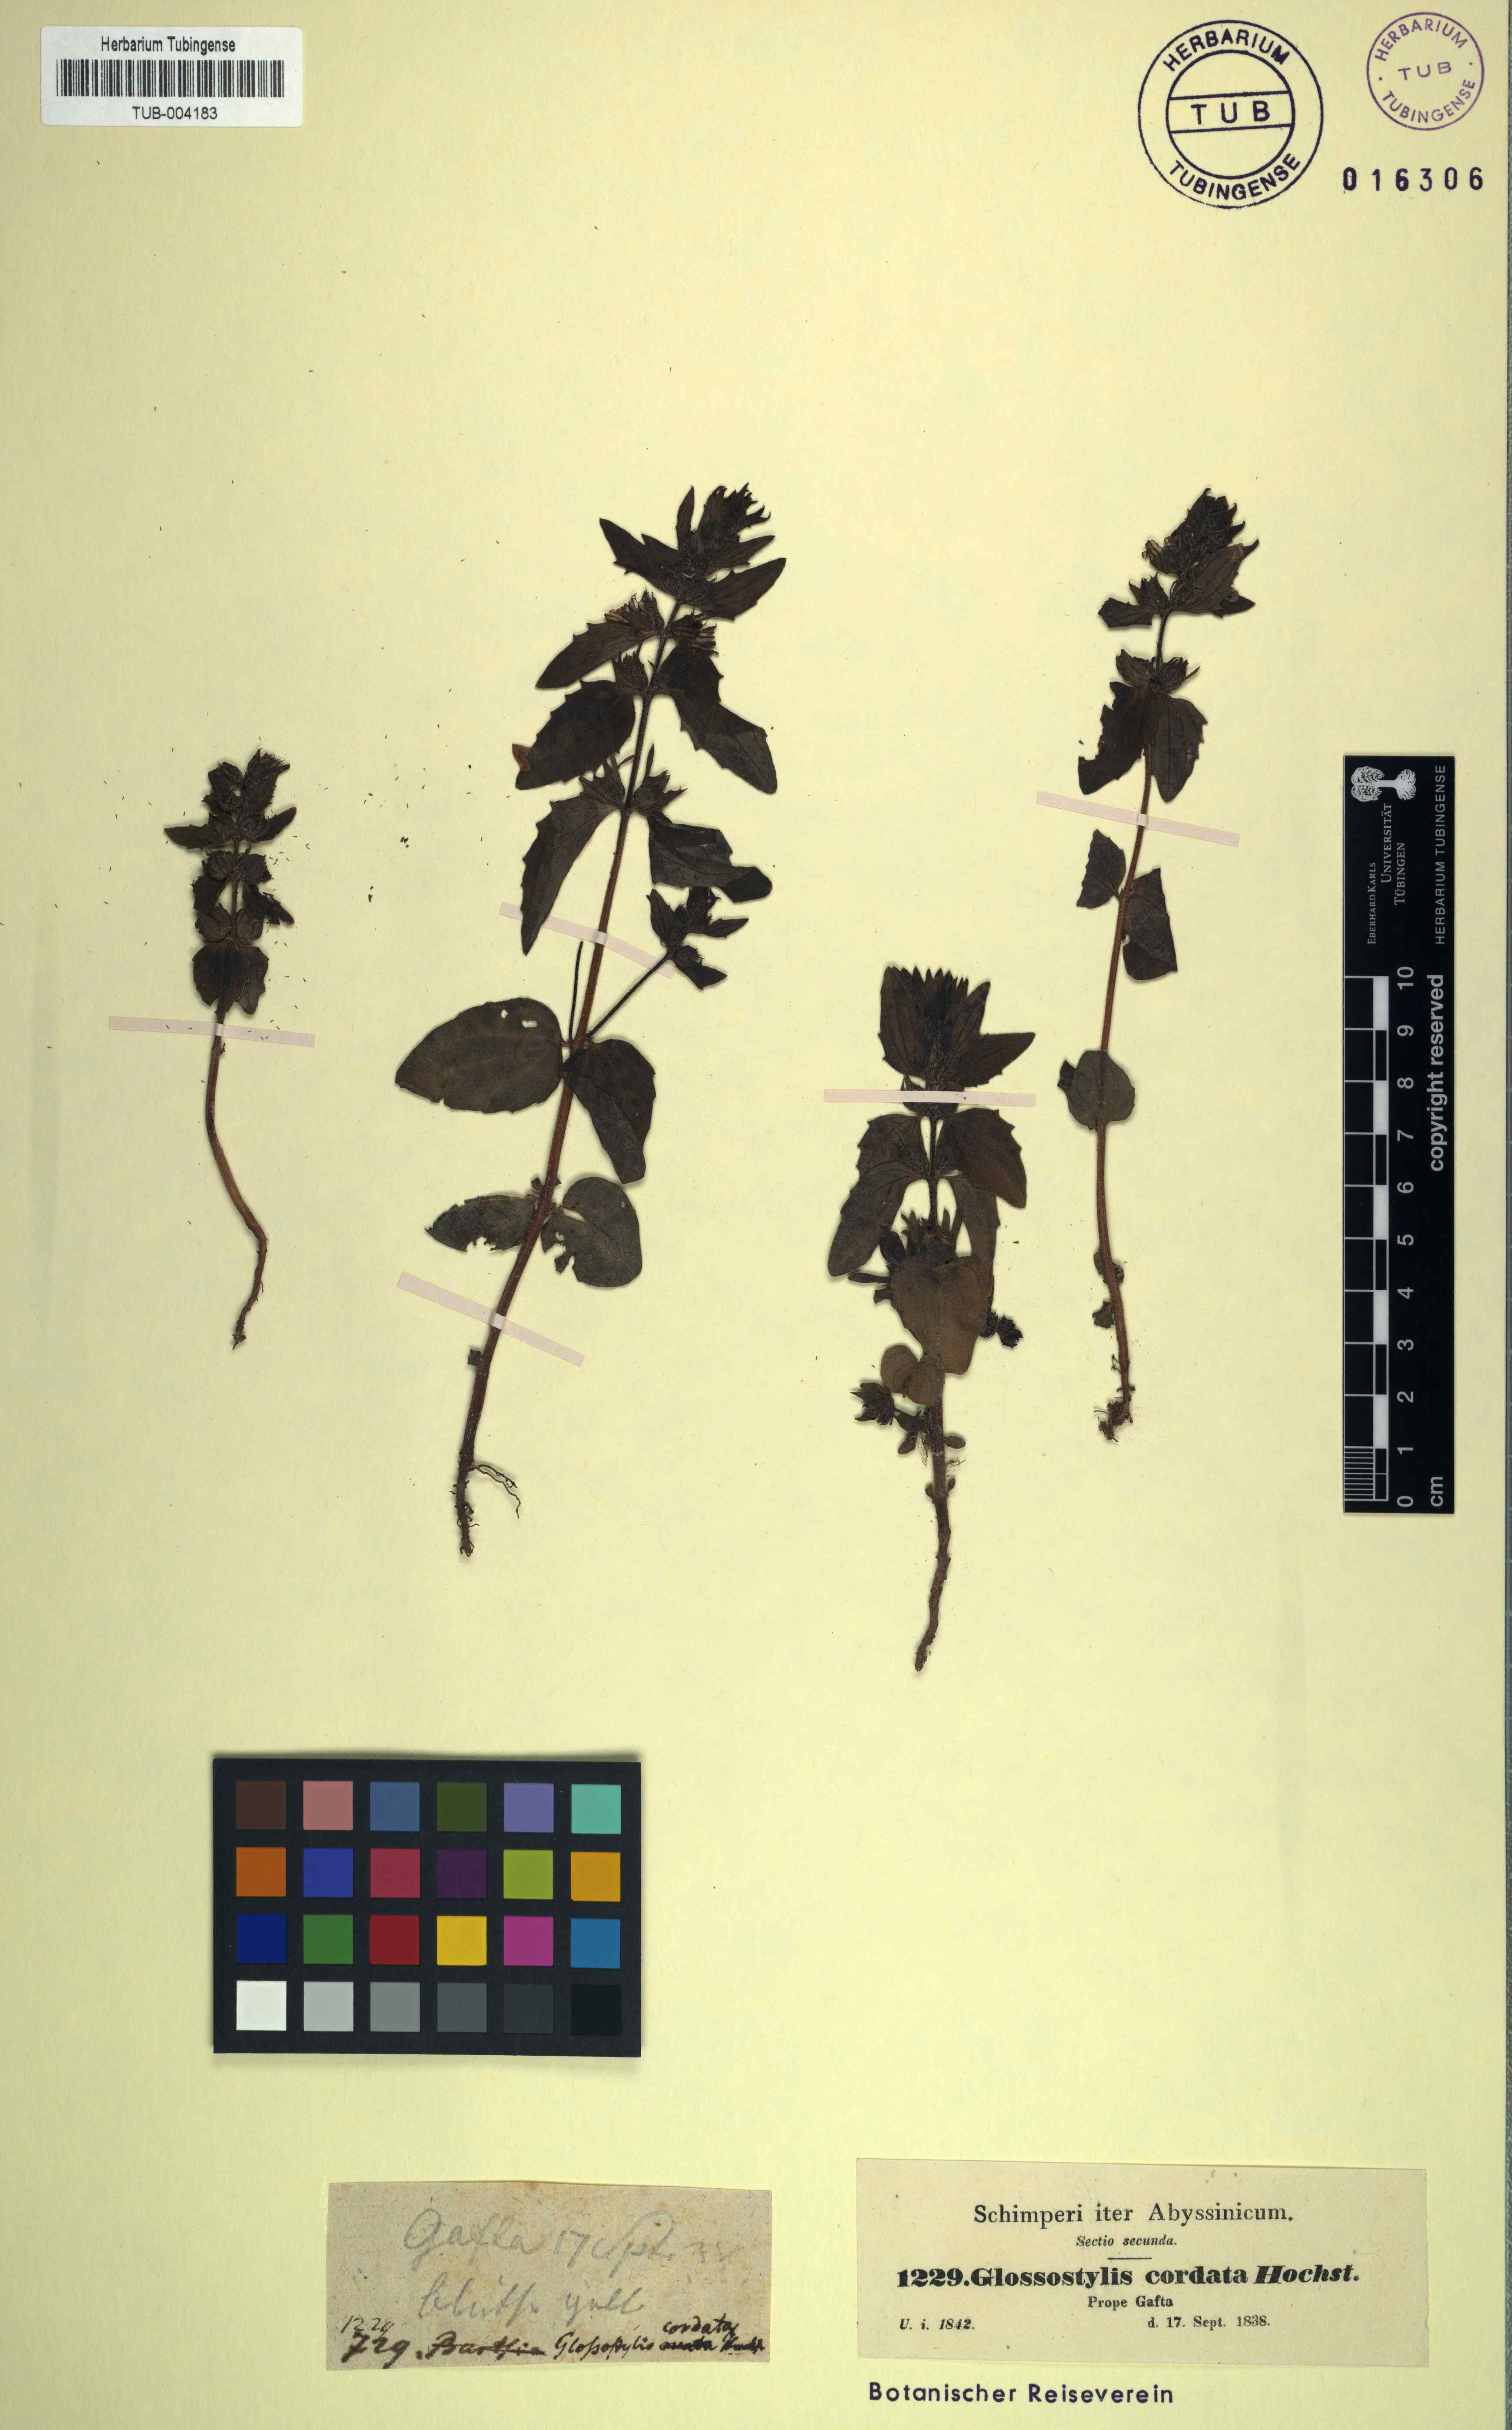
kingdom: Plantae
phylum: Tracheophyta
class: Magnoliopsida
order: Lamiales
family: Orobanchaceae
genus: Alectra
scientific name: Alectra avensis
